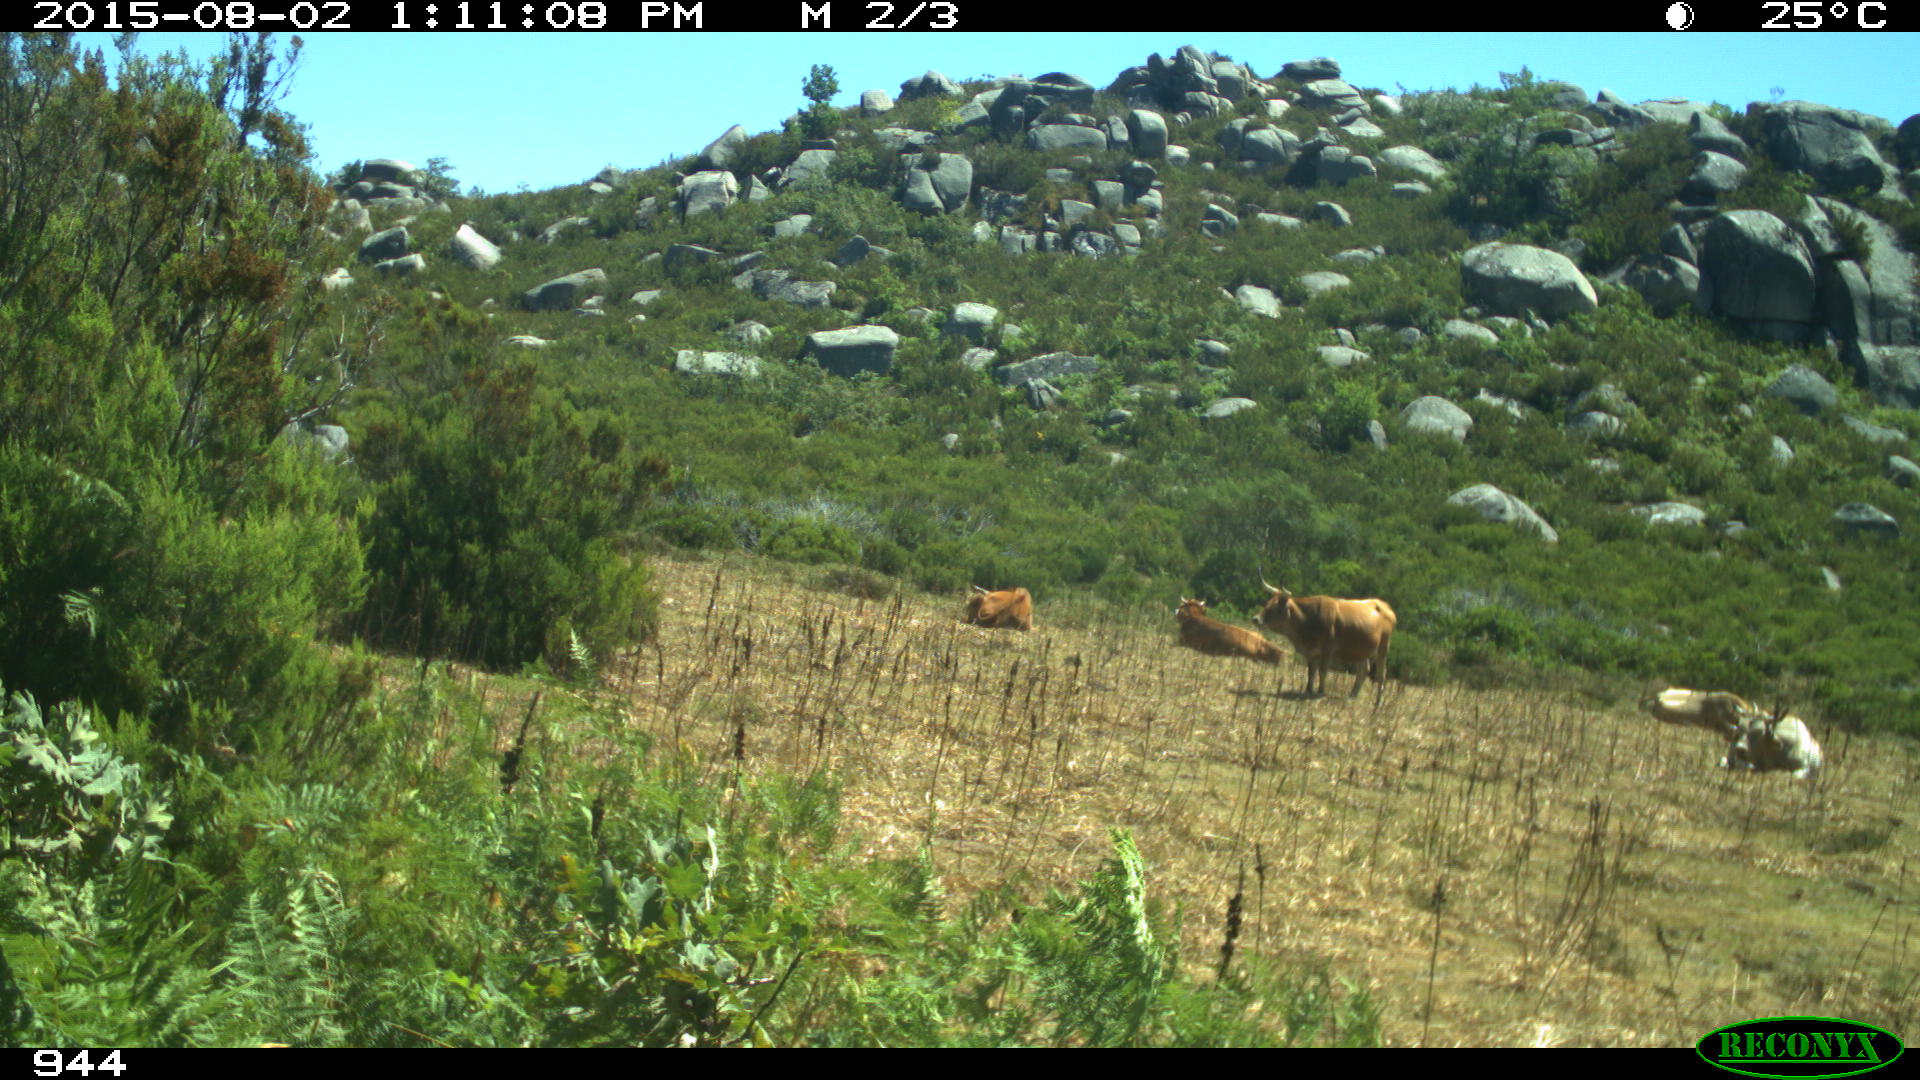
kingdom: Animalia
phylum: Chordata
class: Mammalia
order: Artiodactyla
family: Bovidae
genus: Bos
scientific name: Bos taurus
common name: Domesticated cattle
